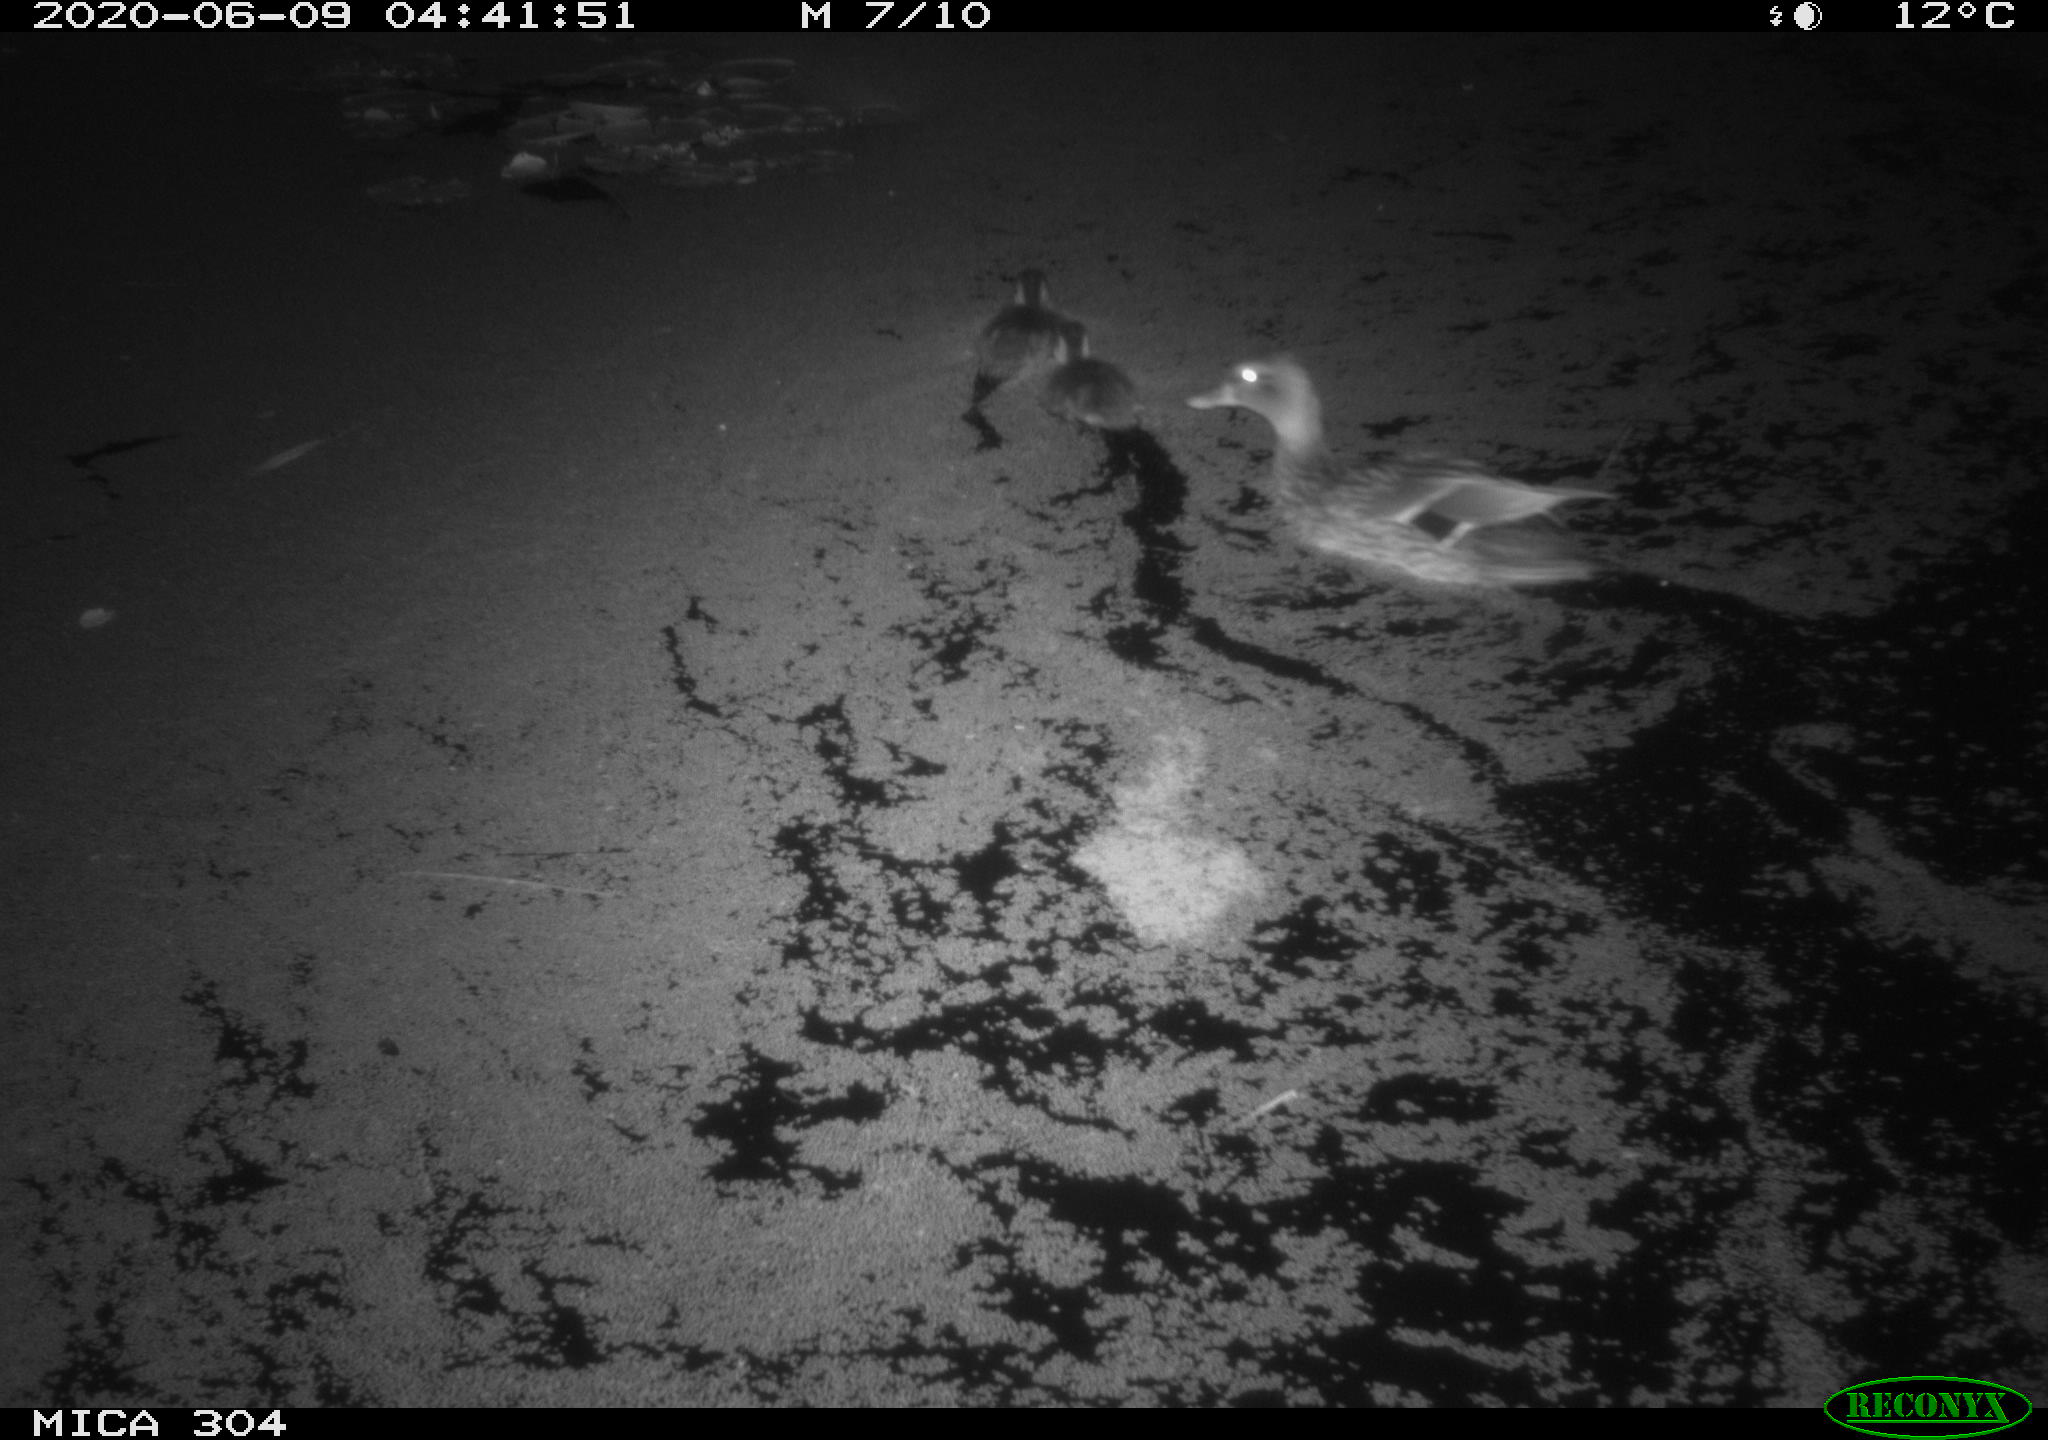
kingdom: Animalia
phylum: Chordata
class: Aves
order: Anseriformes
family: Anatidae
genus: Anas
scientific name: Anas platyrhynchos
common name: Mallard
